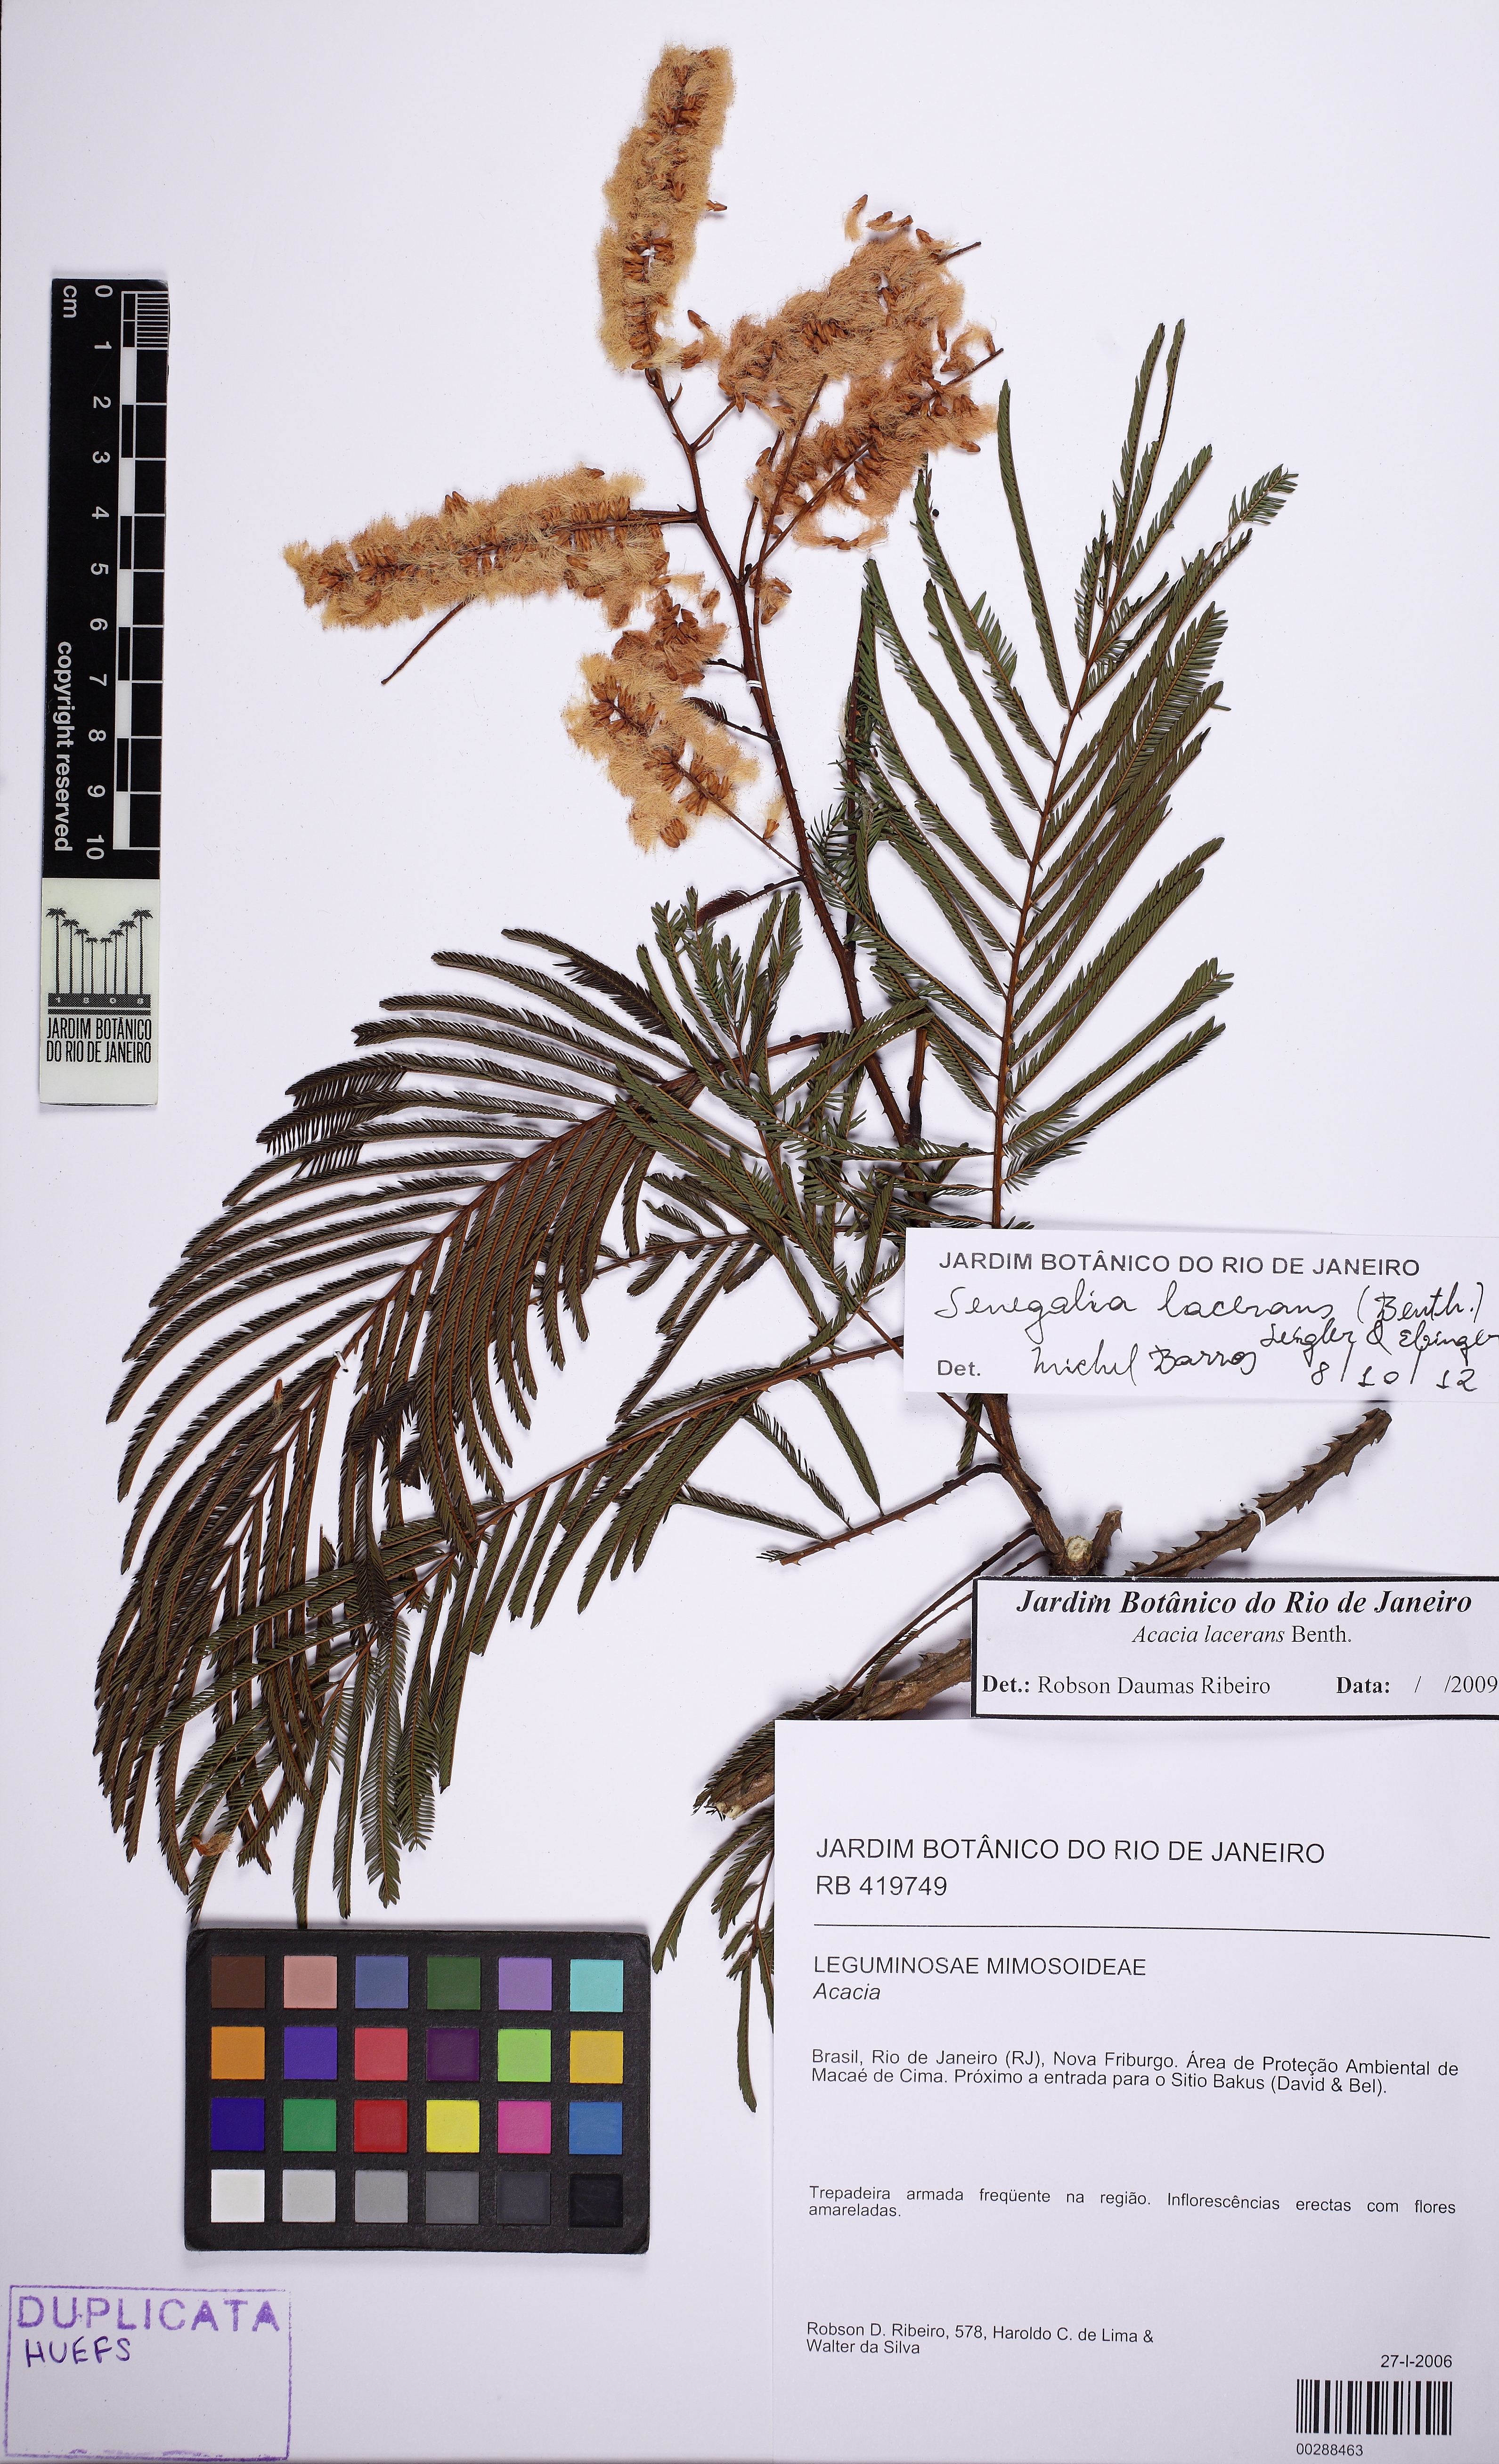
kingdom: Plantae
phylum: Tracheophyta
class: Magnoliopsida
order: Fabales
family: Fabaceae
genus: Senegalia
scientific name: Senegalia lacerans
